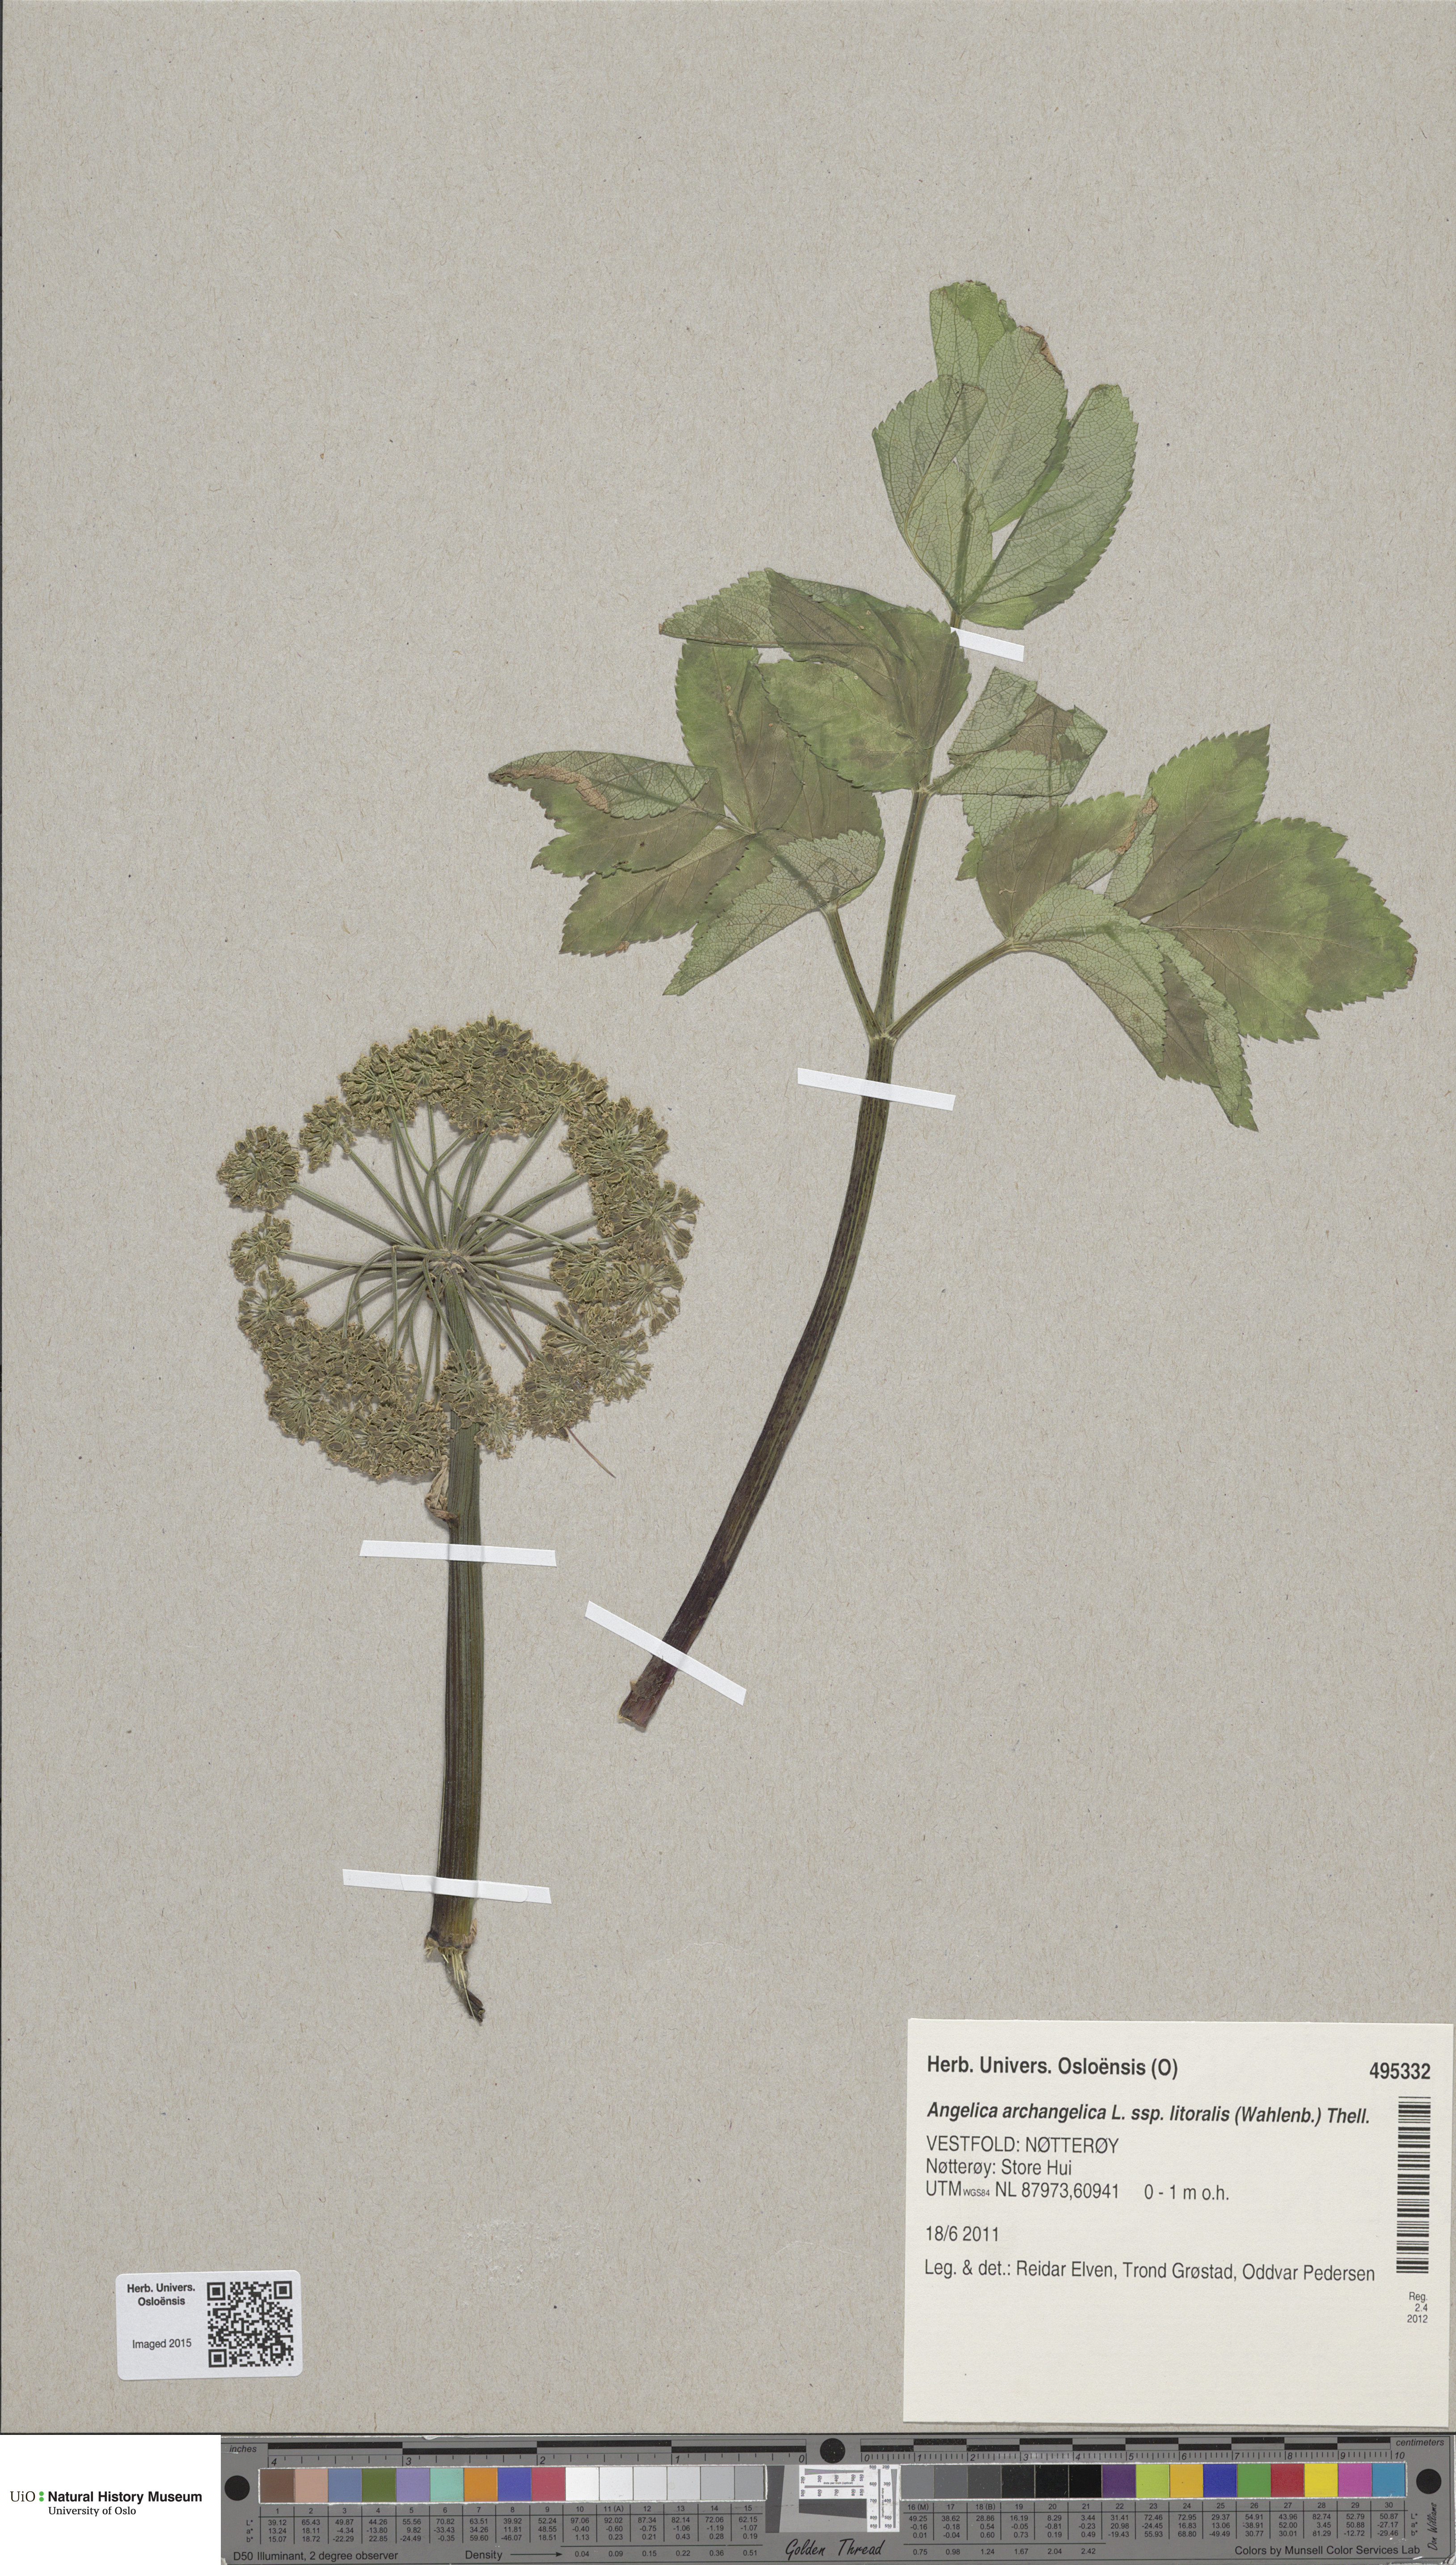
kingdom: Plantae
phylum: Tracheophyta
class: Magnoliopsida
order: Apiales
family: Apiaceae
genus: Angelica
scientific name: Angelica archangelica
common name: Garden angelica
